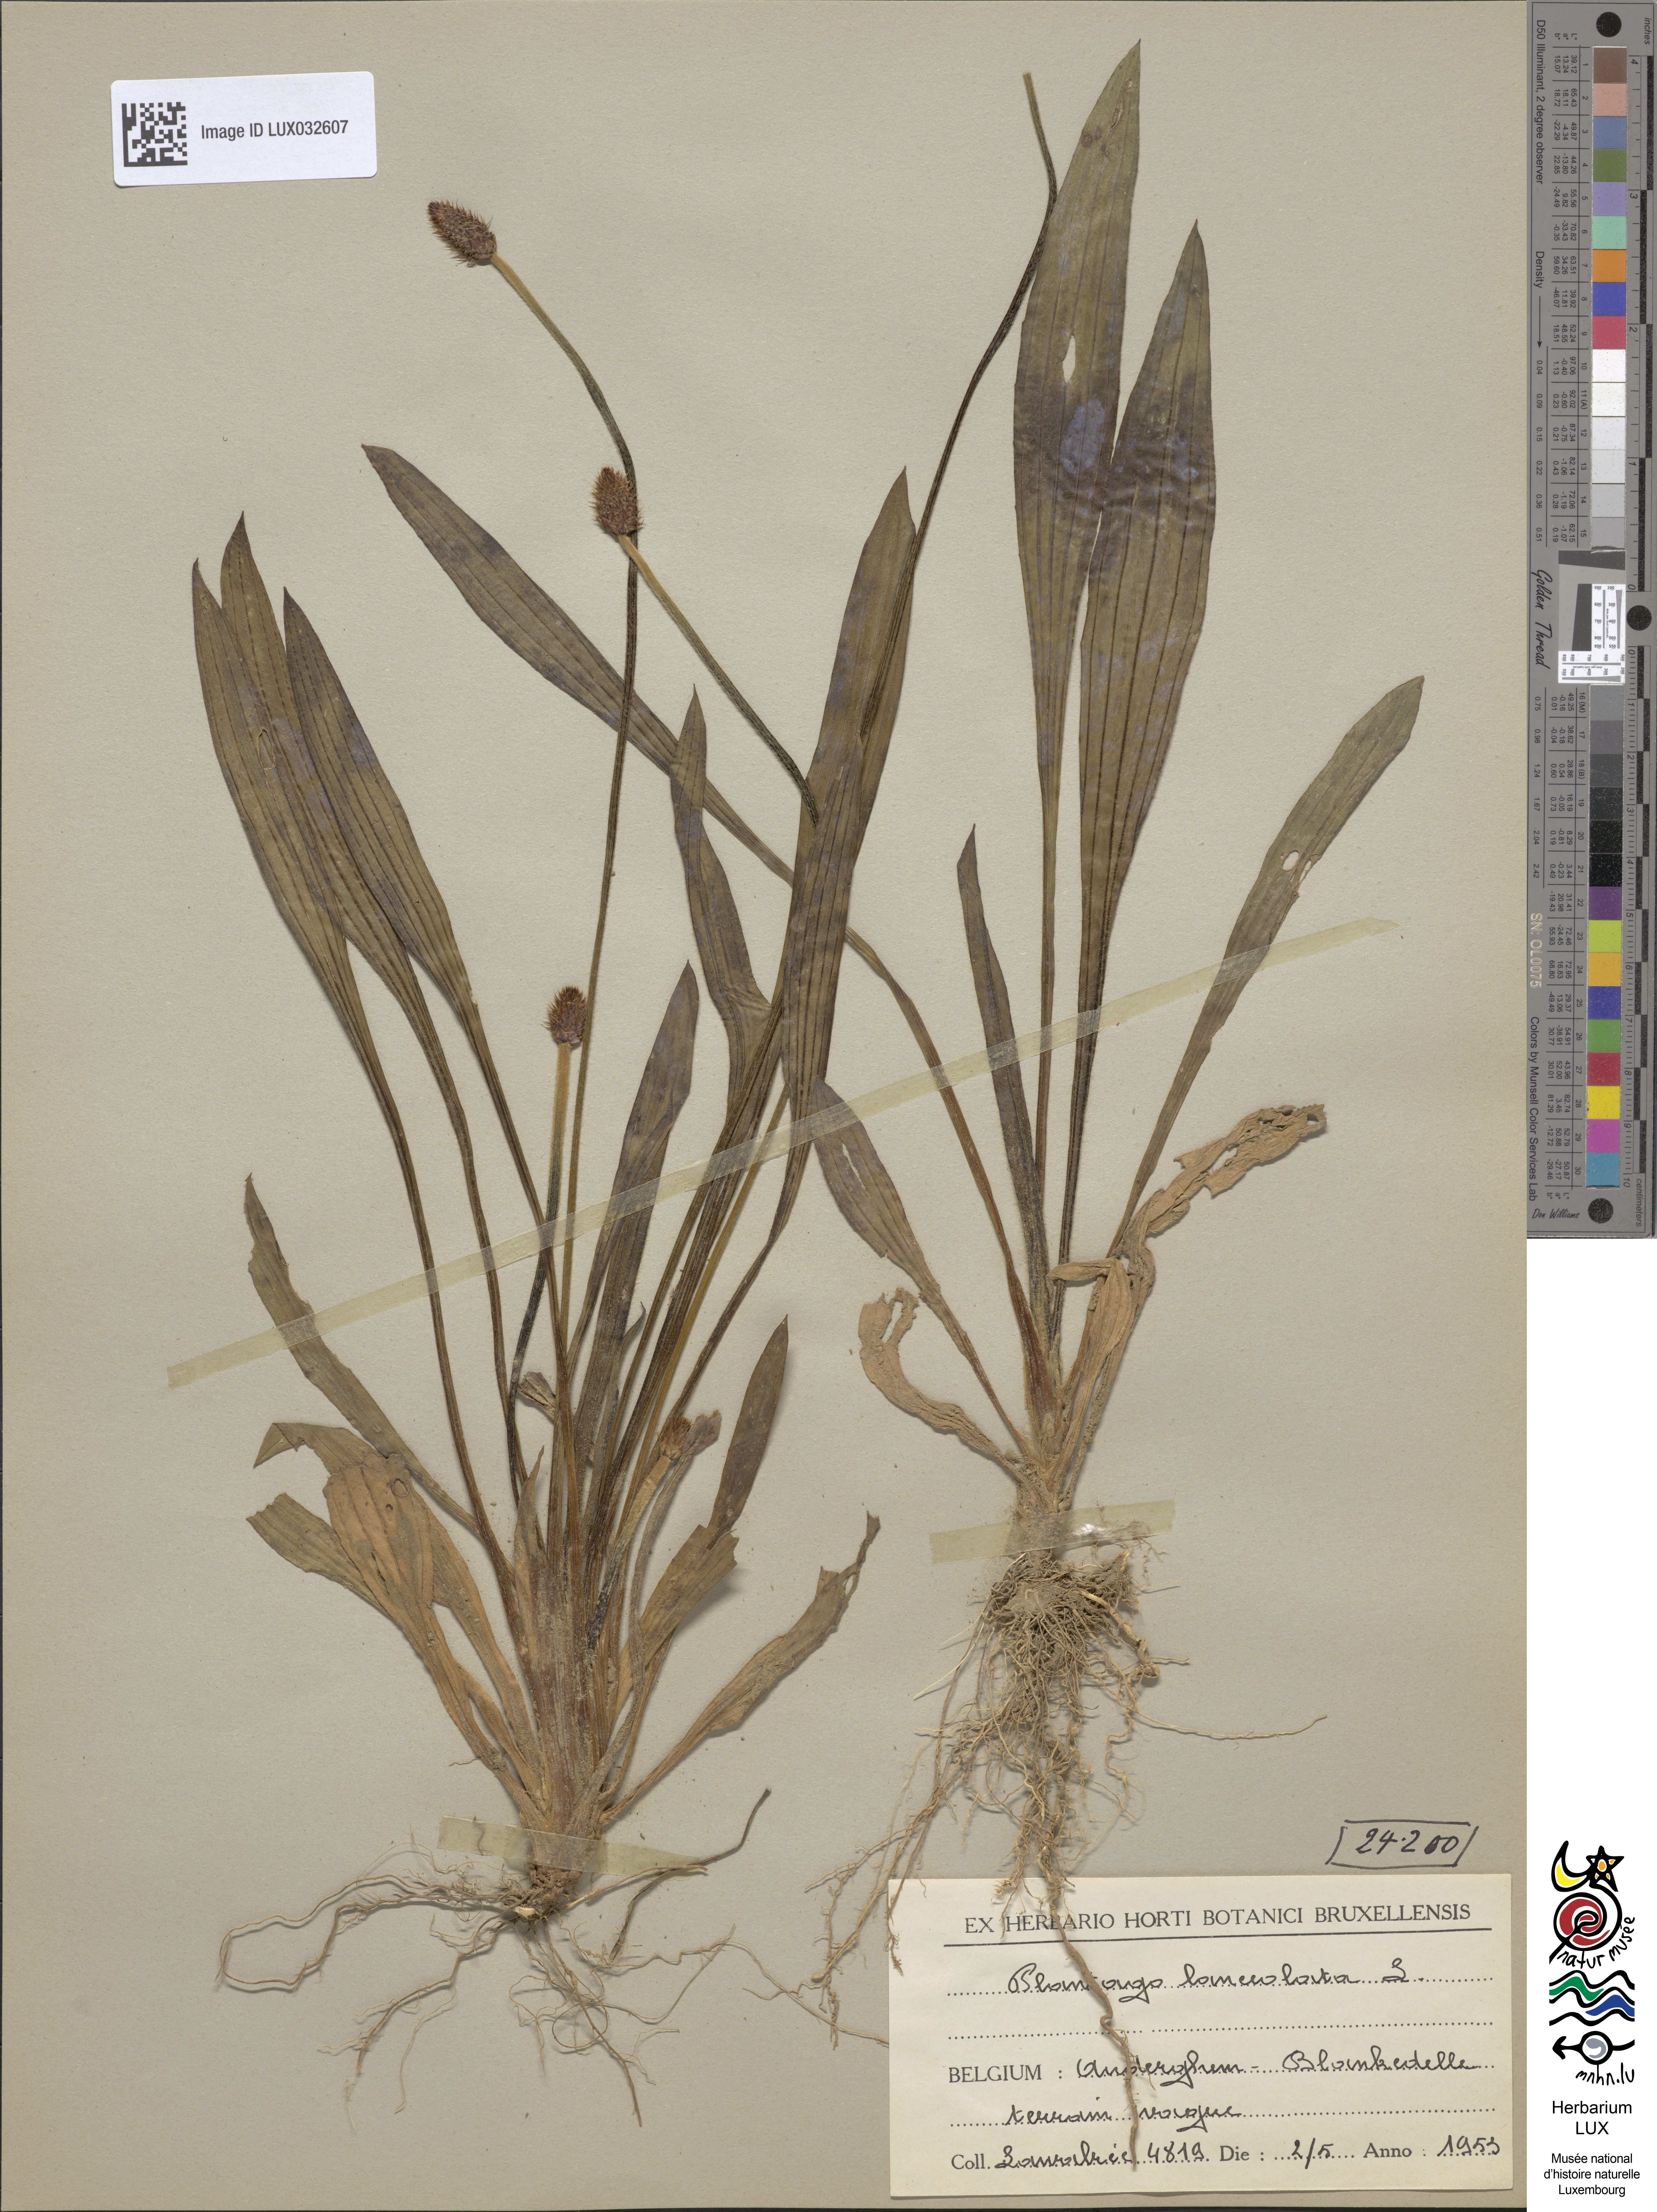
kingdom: Plantae
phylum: Tracheophyta
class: Magnoliopsida
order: Lamiales
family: Plantaginaceae
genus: Plantago
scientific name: Plantago lanceolata
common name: Ribwort plantain
